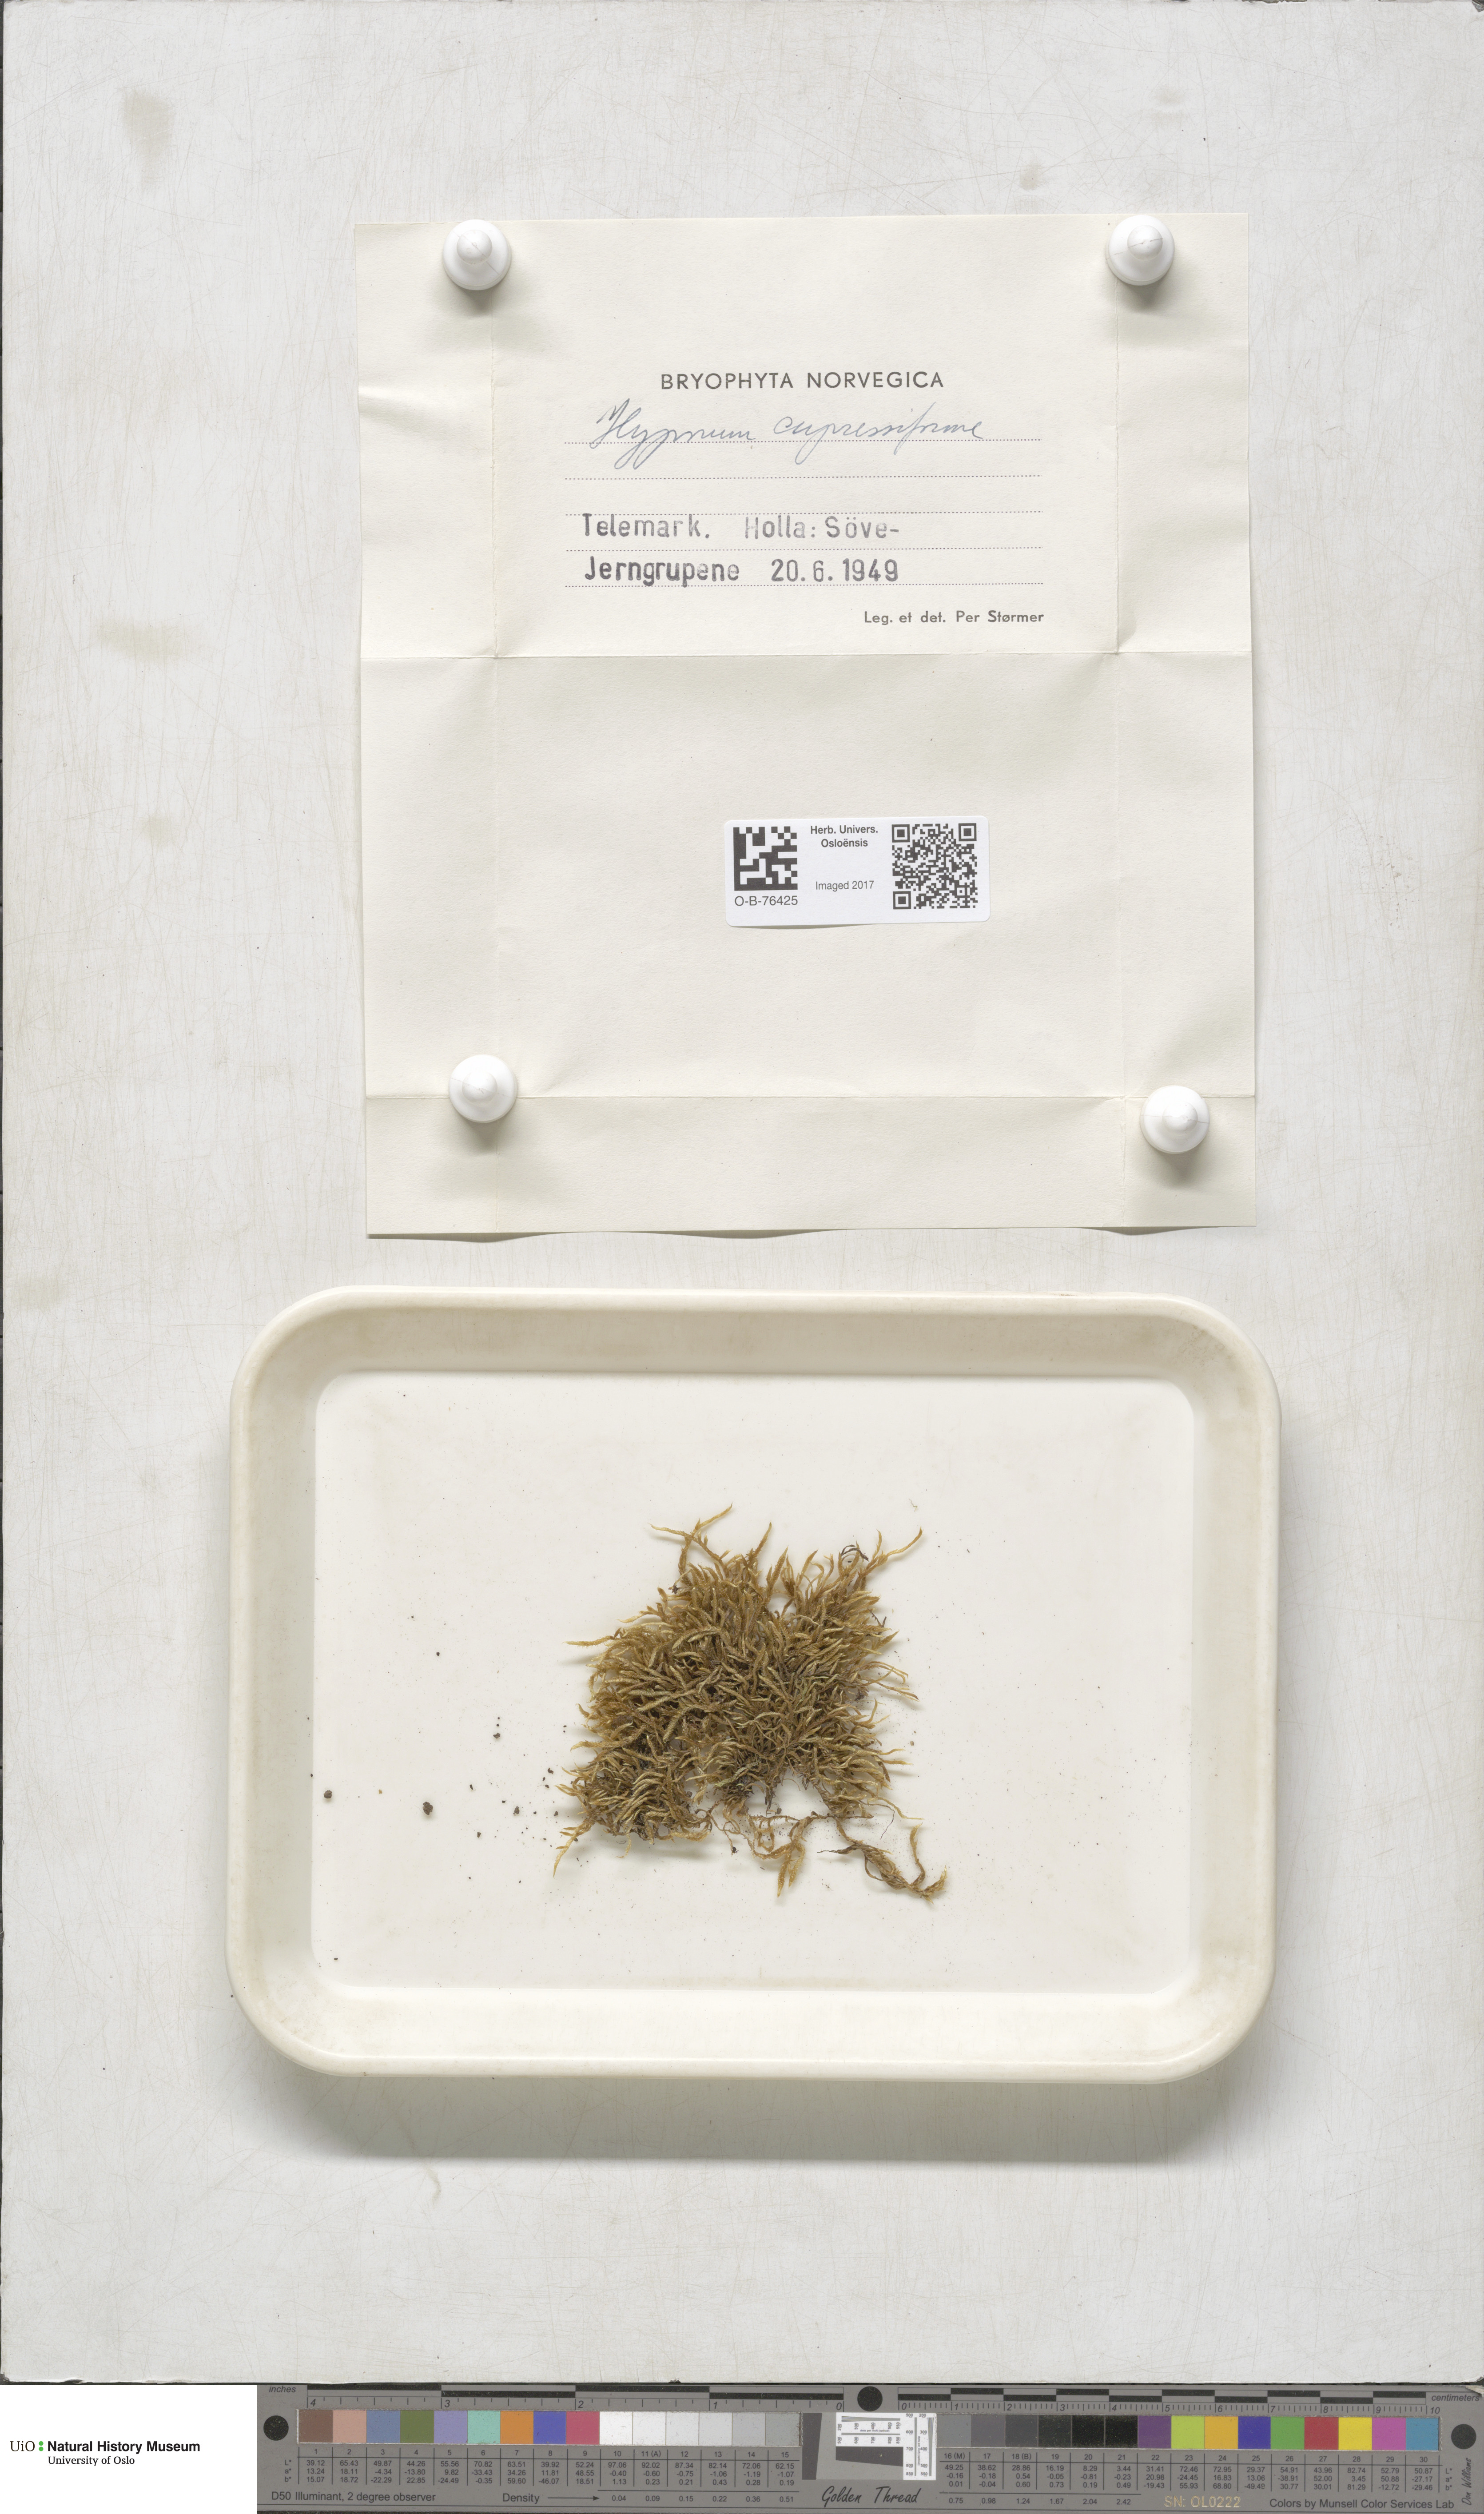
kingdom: Plantae
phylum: Bryophyta
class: Bryopsida
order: Hypnales
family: Hypnaceae
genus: Hypnum
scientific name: Hypnum cupressiforme
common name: Cypress-leaved plait-moss
